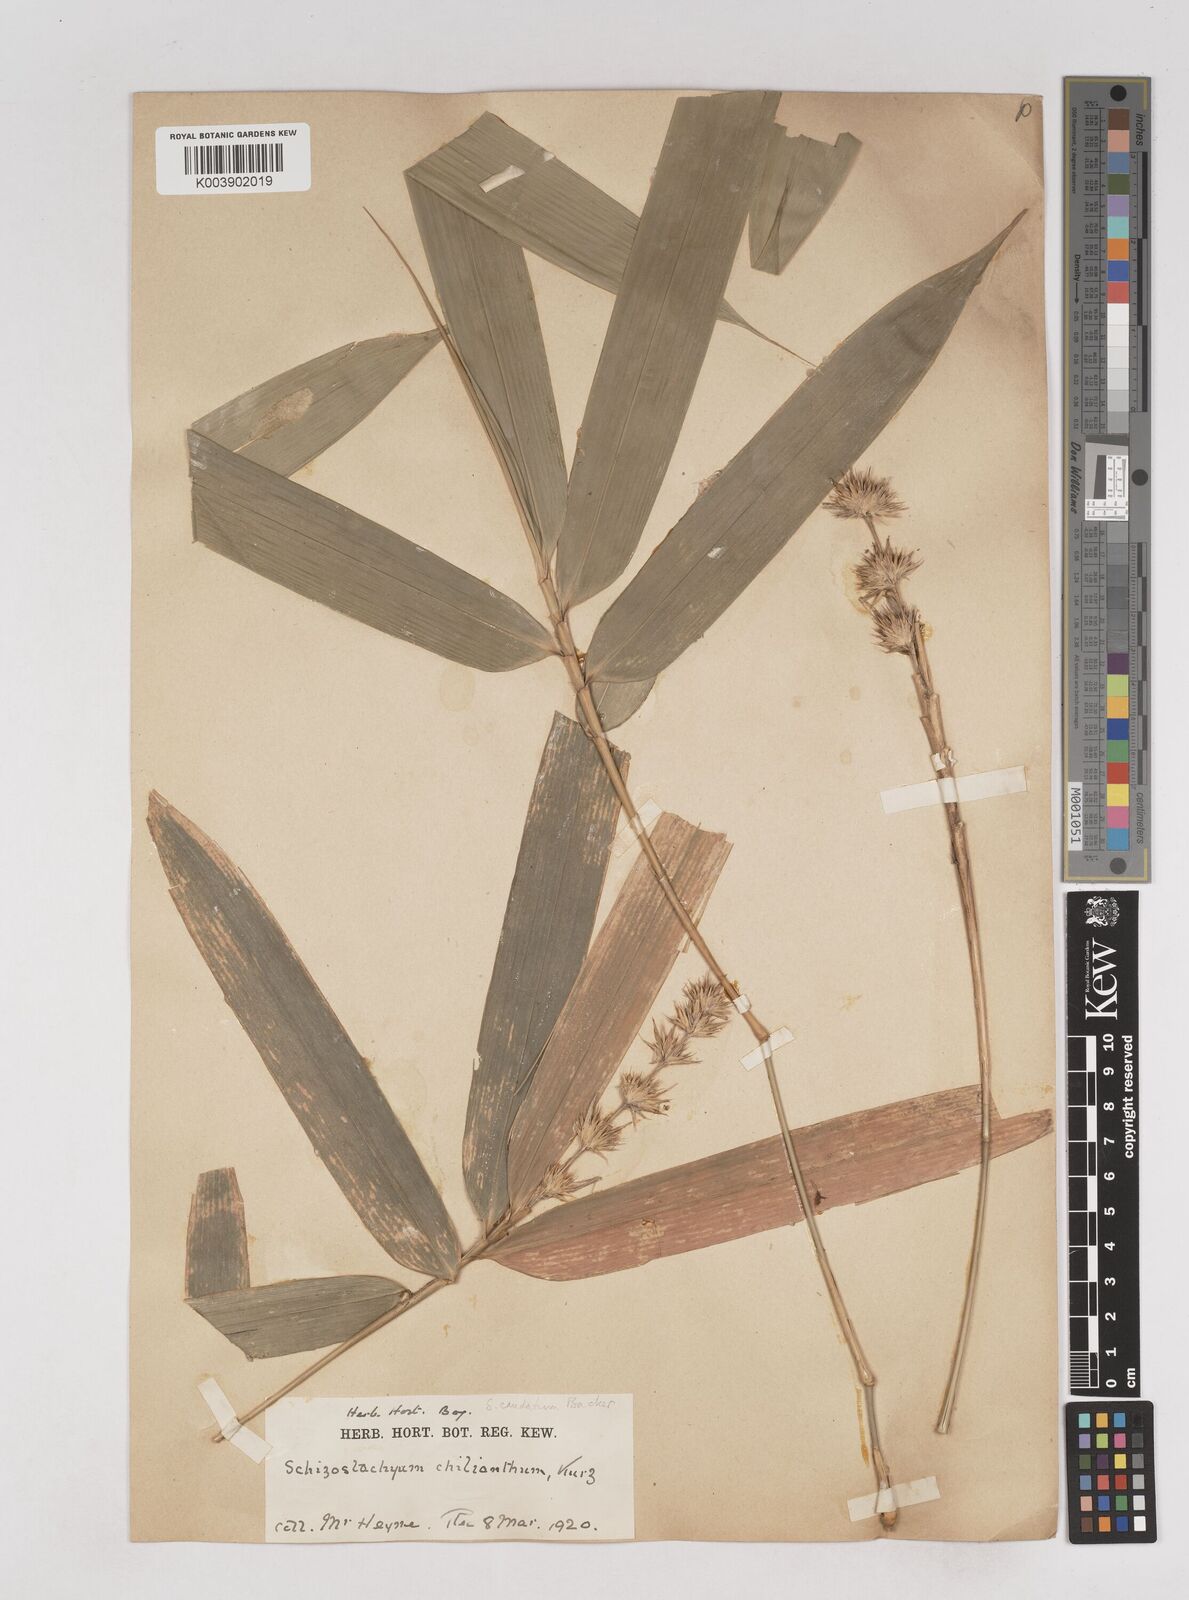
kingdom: Plantae
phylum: Tracheophyta
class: Liliopsida
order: Poales
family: Poaceae
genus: Schizostachyum
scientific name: Schizostachyum caudatum
